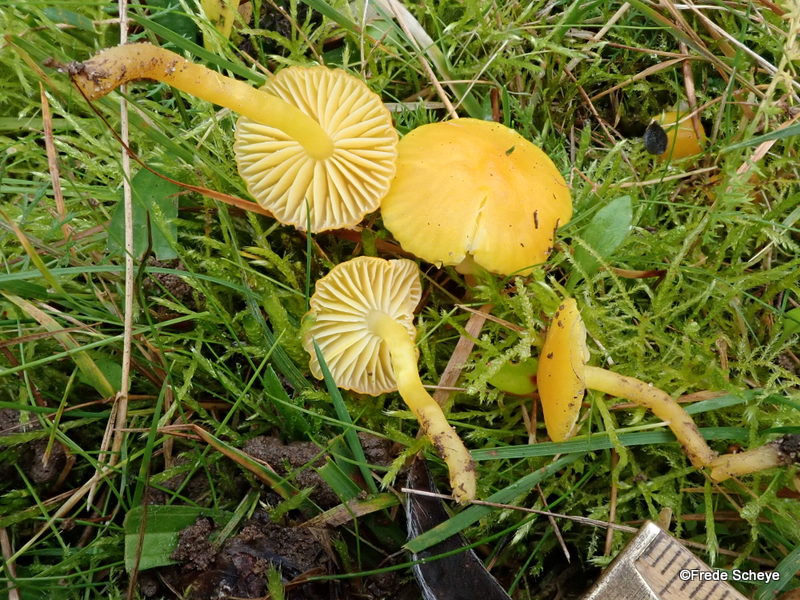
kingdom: Fungi
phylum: Basidiomycota
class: Agaricomycetes
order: Agaricales
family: Hygrophoraceae
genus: Hygrocybe
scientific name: Hygrocybe ceracea
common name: voksgul vokshat
